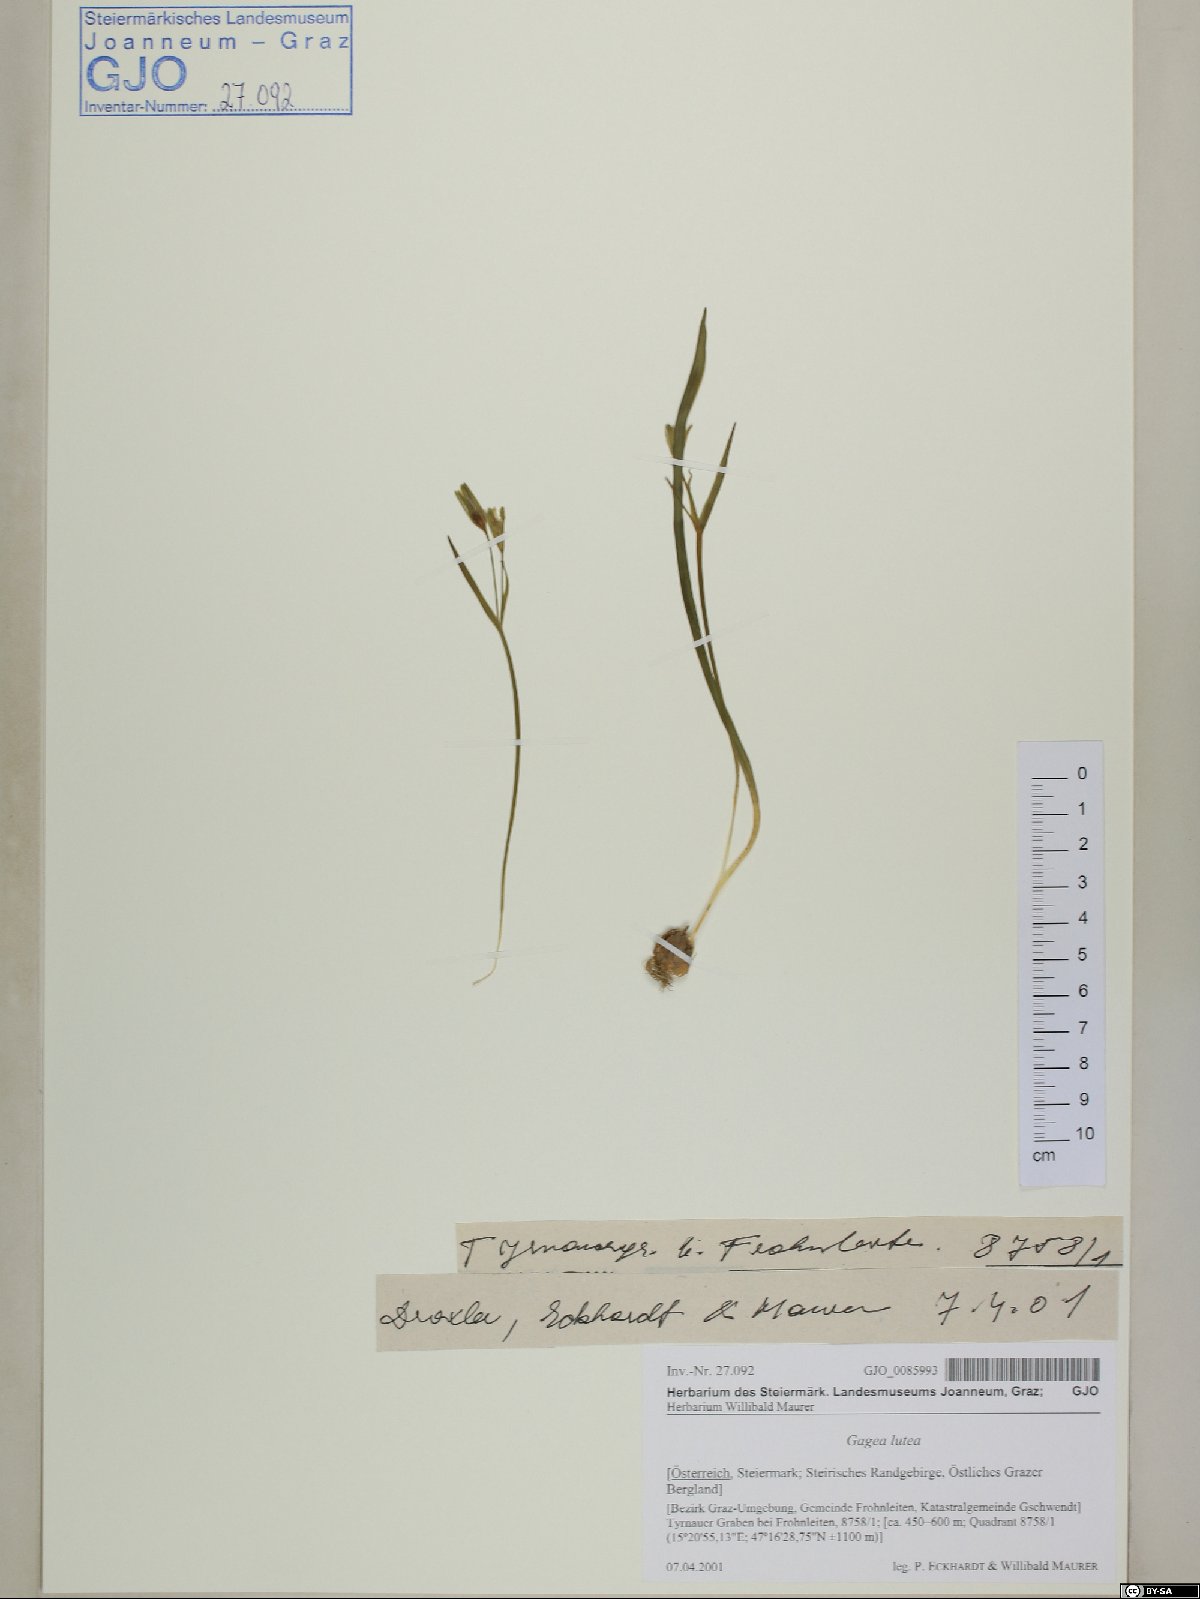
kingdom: Plantae
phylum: Tracheophyta
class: Liliopsida
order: Liliales
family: Liliaceae
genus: Gagea
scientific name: Gagea lutea
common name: Yellow star-of-bethlehem
